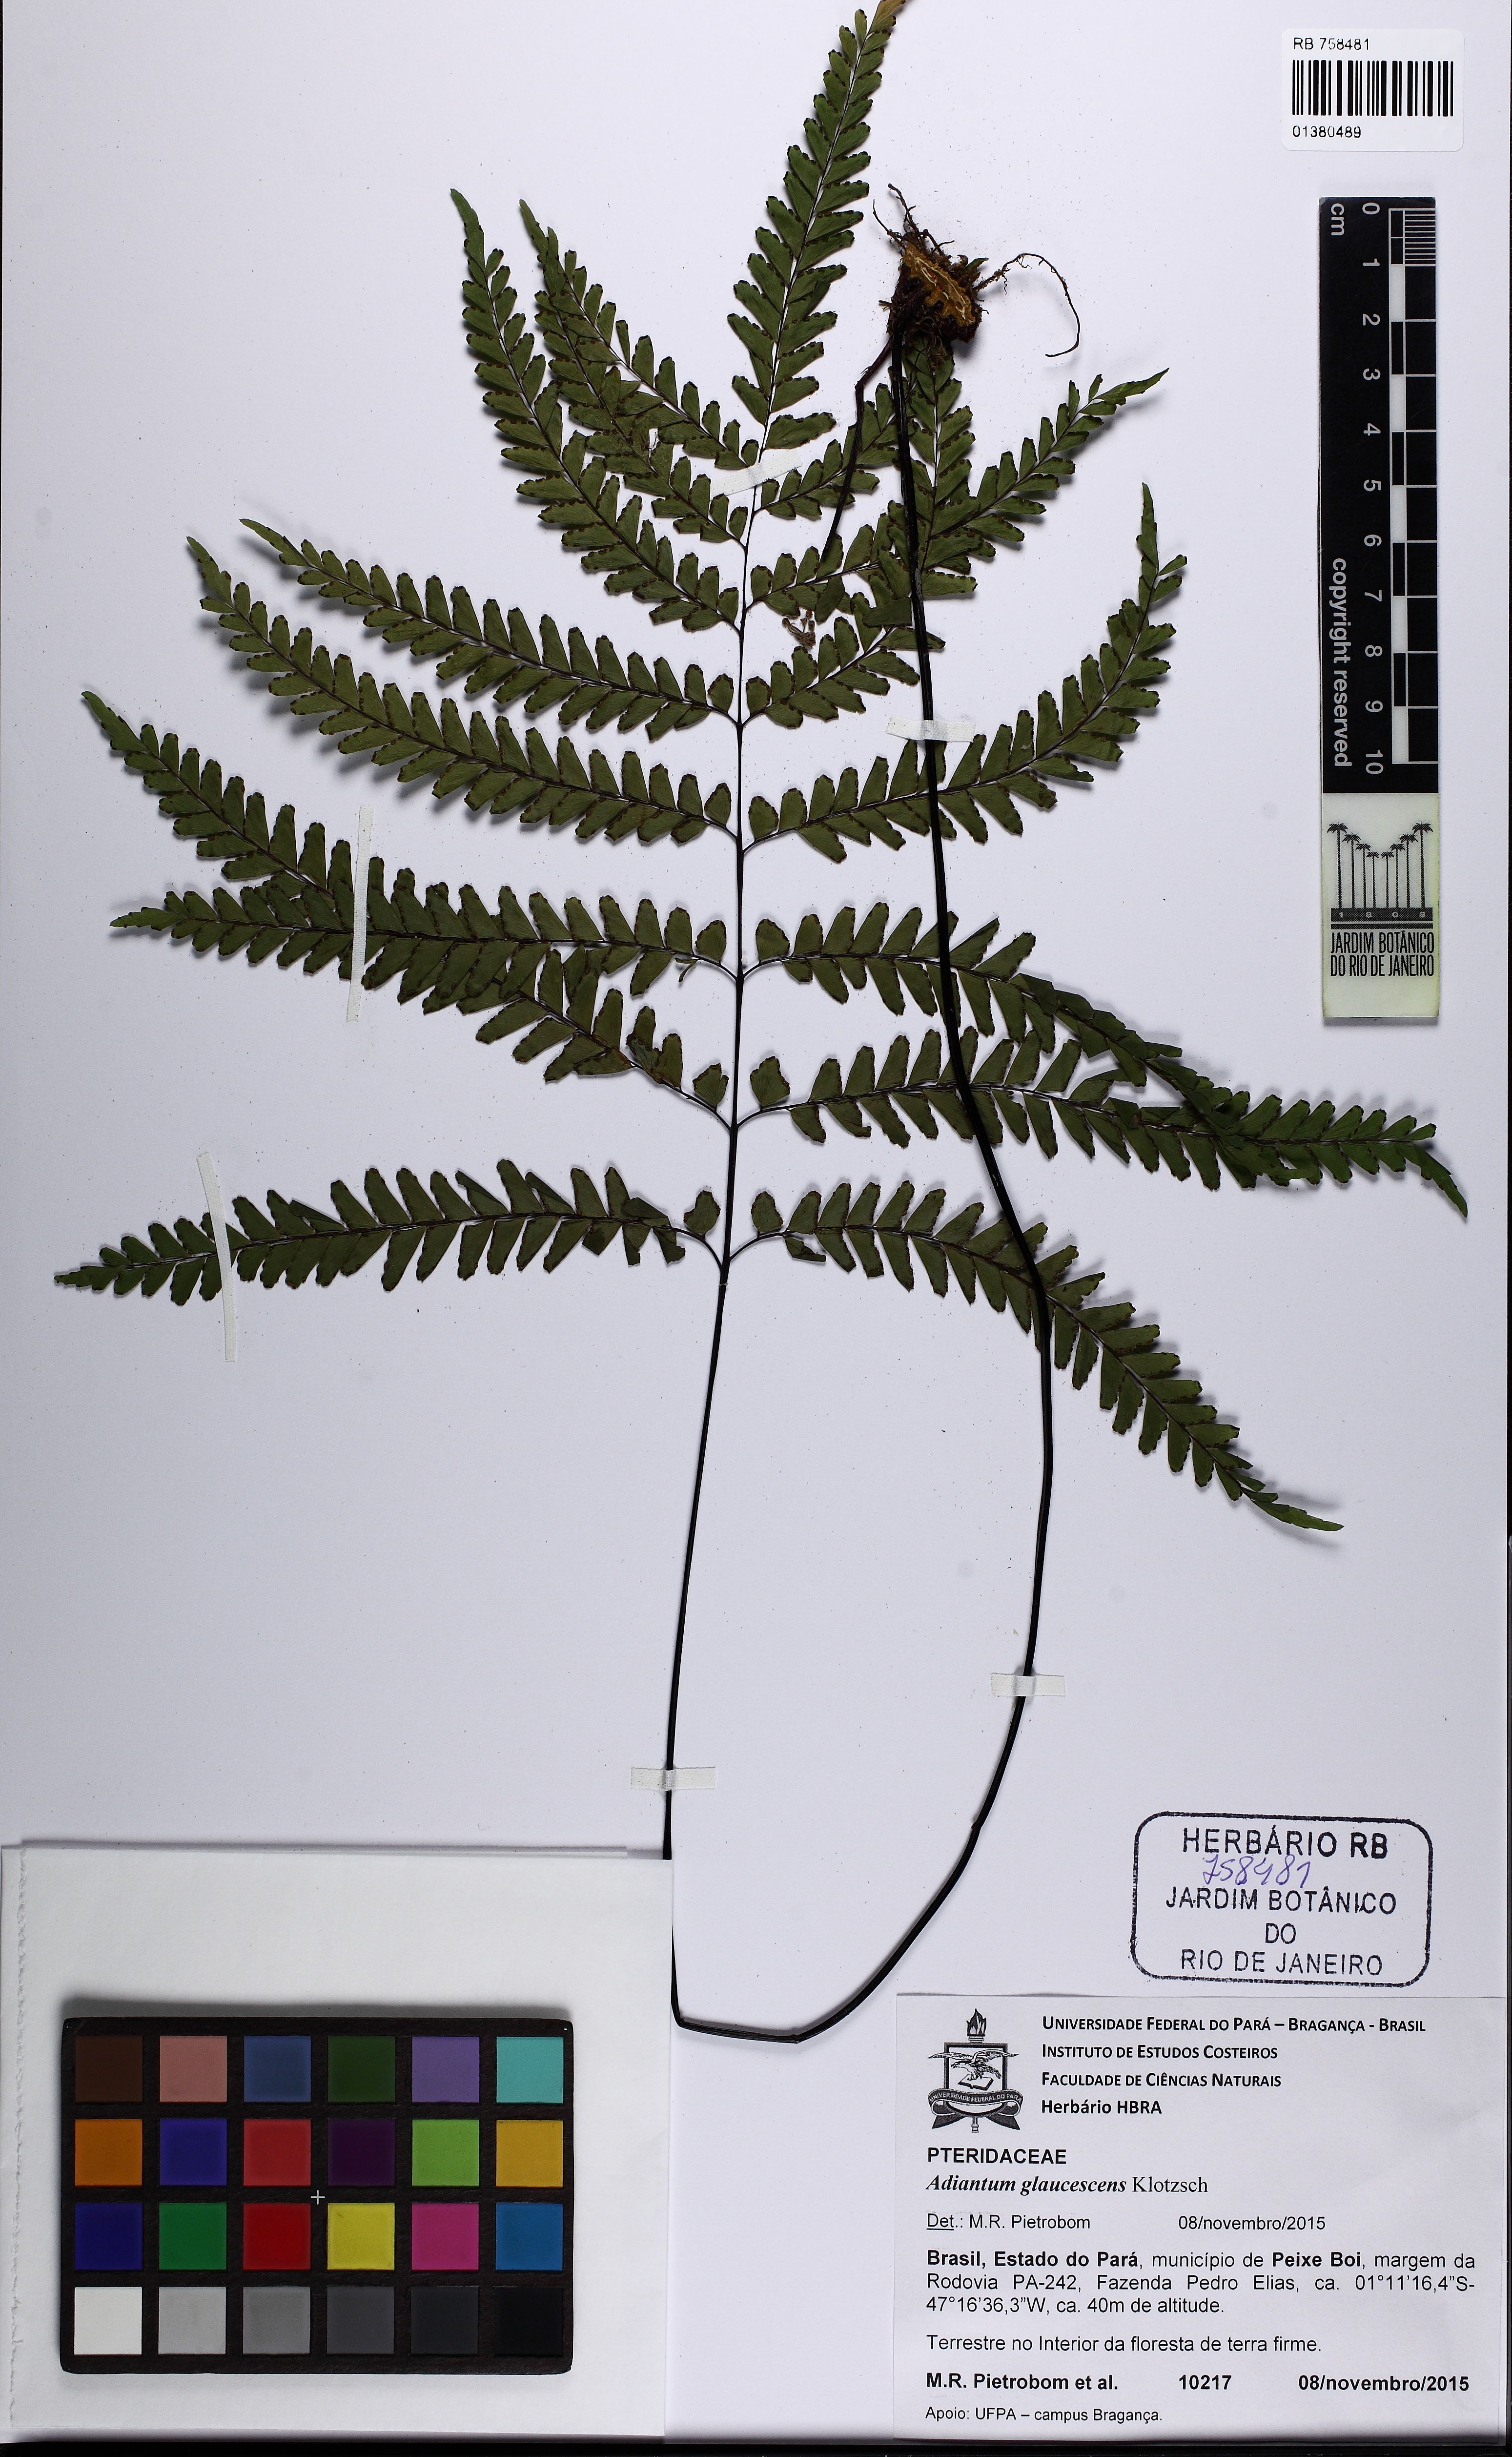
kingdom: Plantae
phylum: Tracheophyta
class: Polypodiopsida
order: Polypodiales
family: Pteridaceae
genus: Adiantum
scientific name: Adiantum glaucescens
